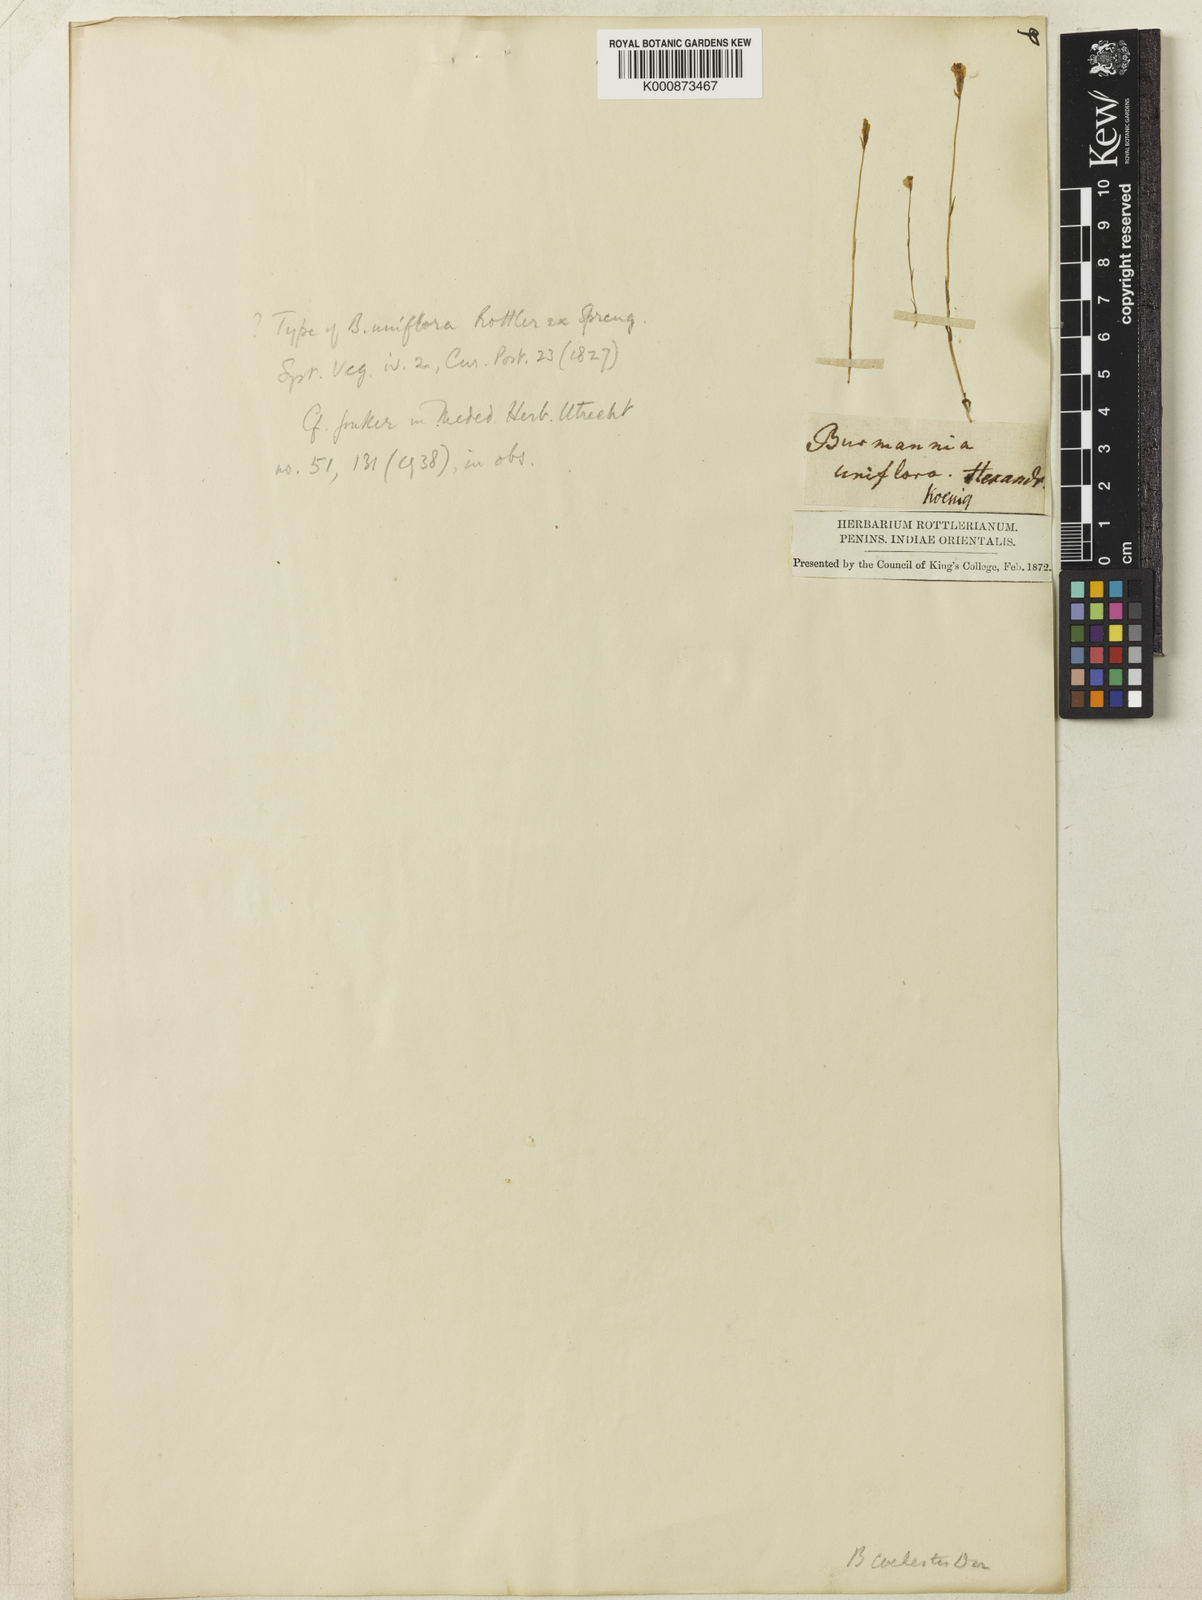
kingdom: Plantae
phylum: Tracheophyta
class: Liliopsida
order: Dioscoreales
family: Burmanniaceae
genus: Burmannia
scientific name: Burmannia pusilla
